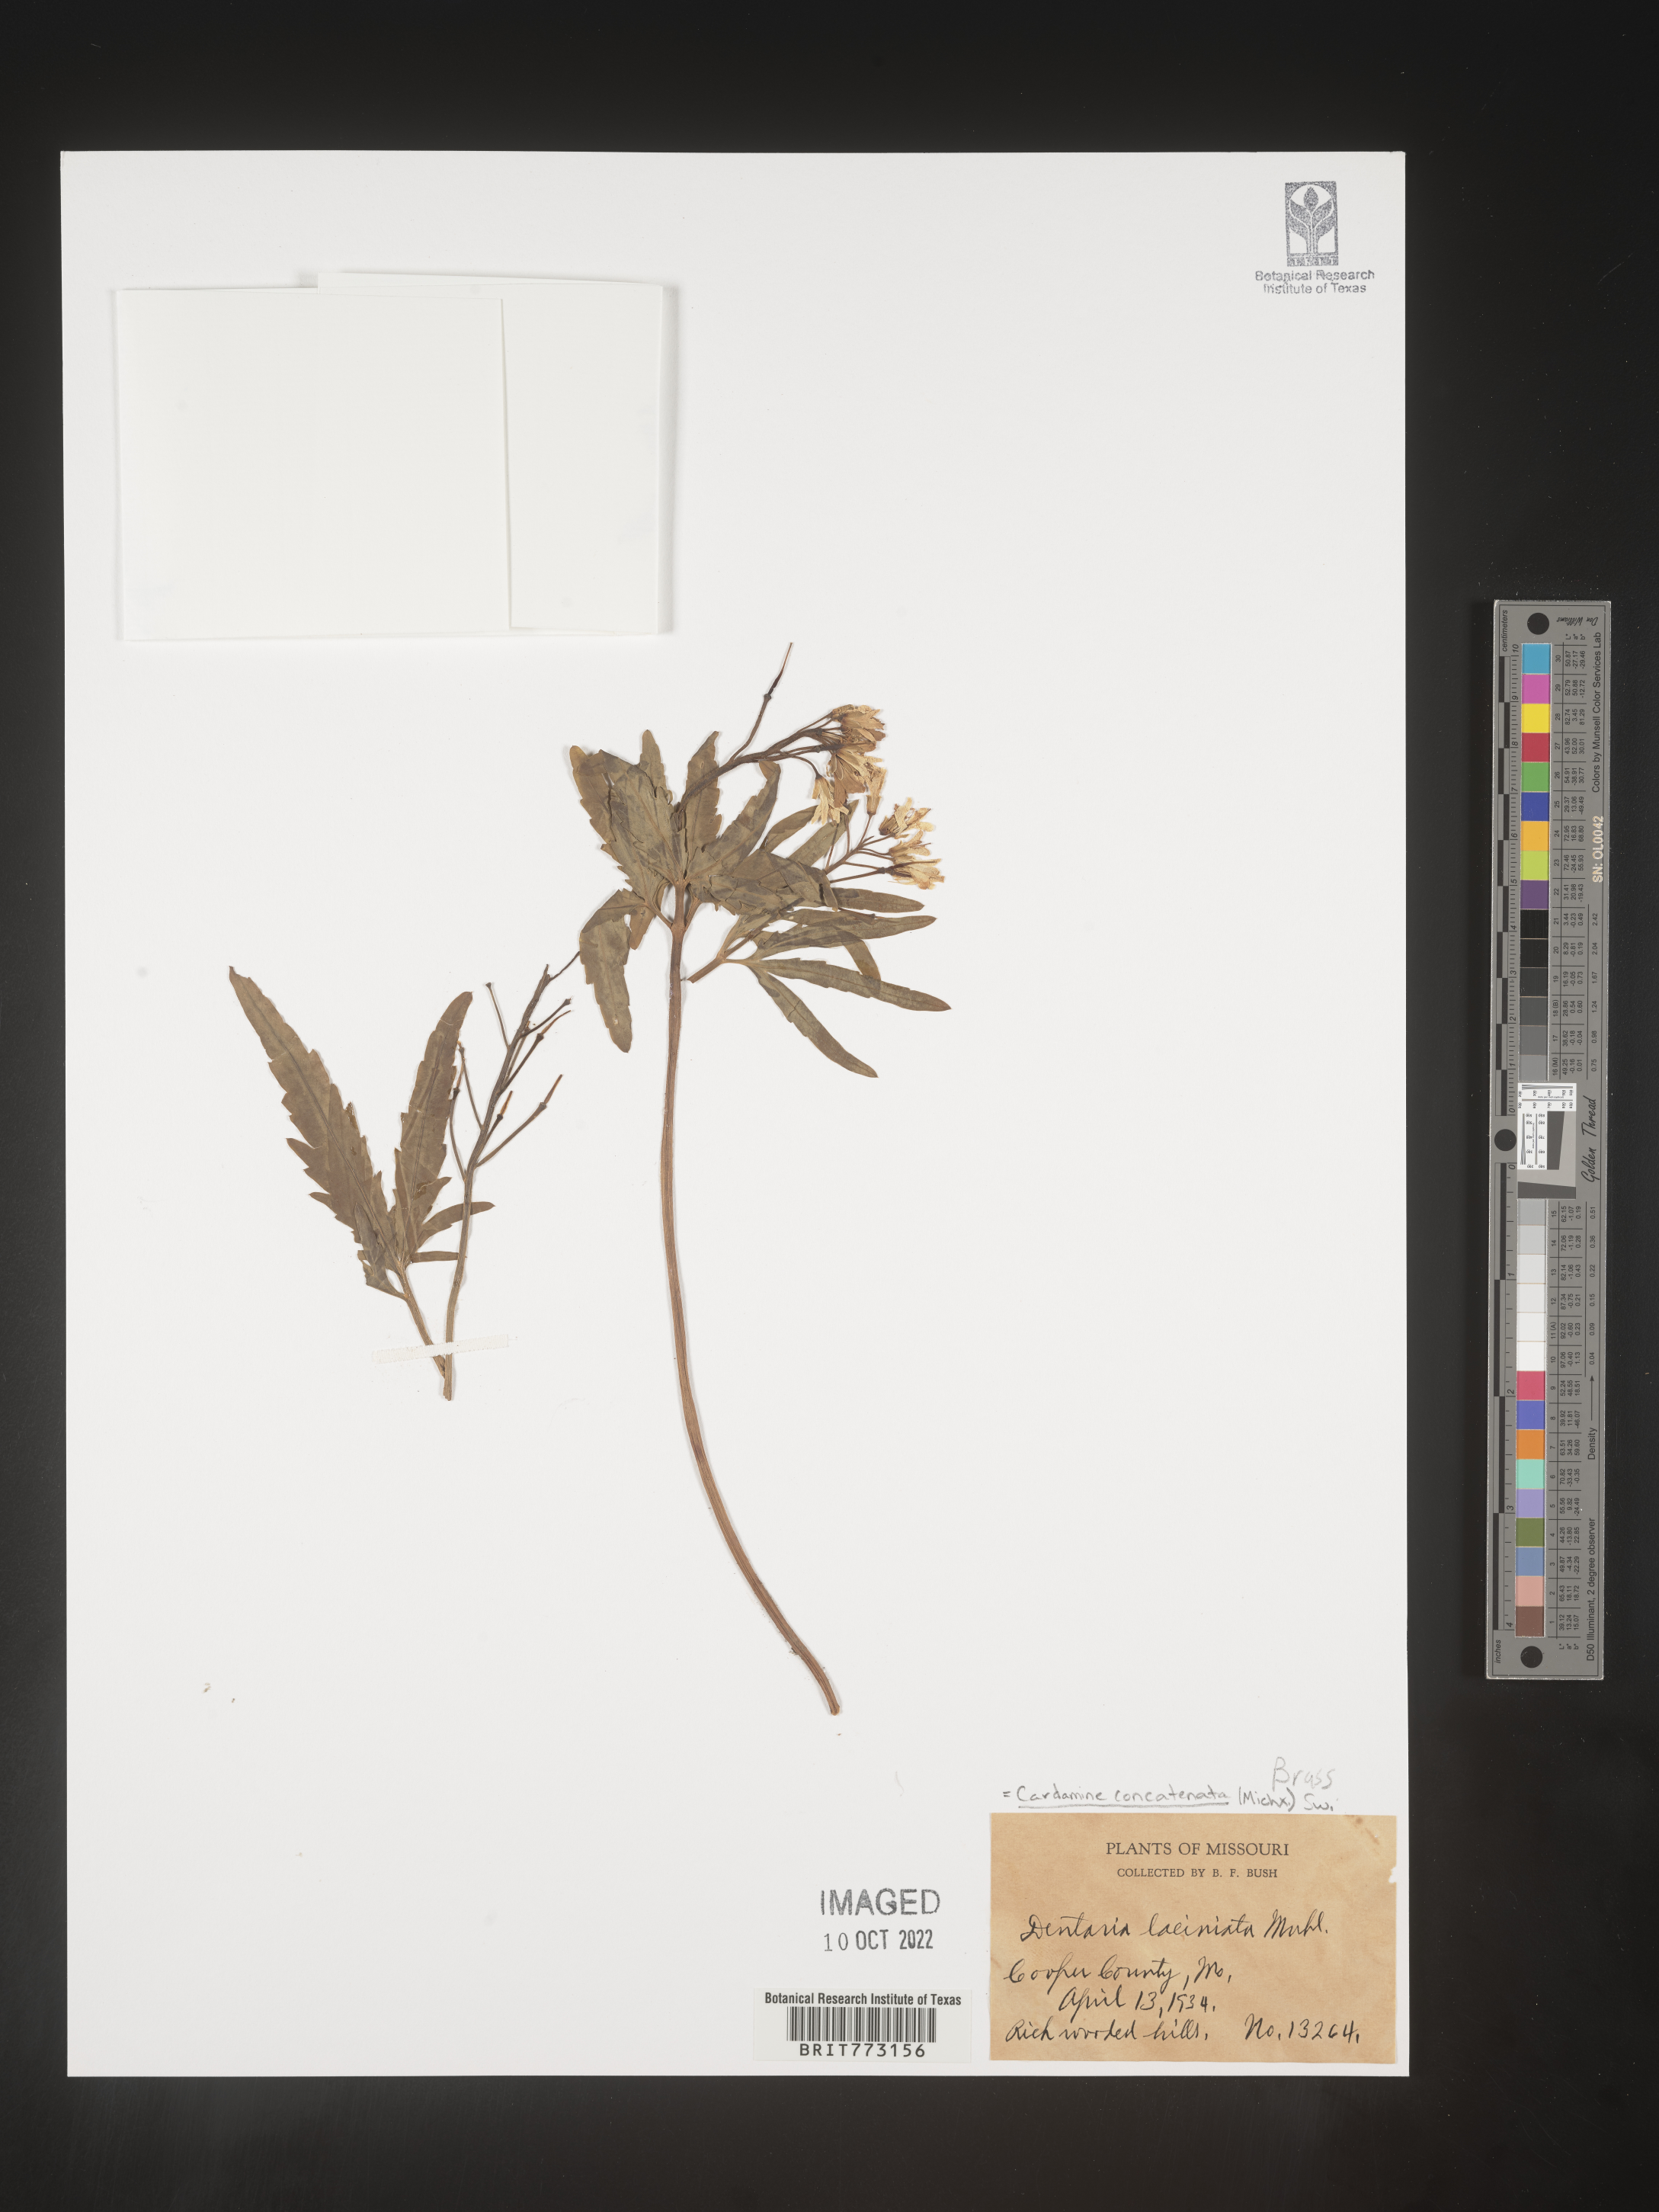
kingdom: Plantae
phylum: Tracheophyta
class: Magnoliopsida
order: Brassicales
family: Brassicaceae
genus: Cardamine
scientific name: Cardamine
